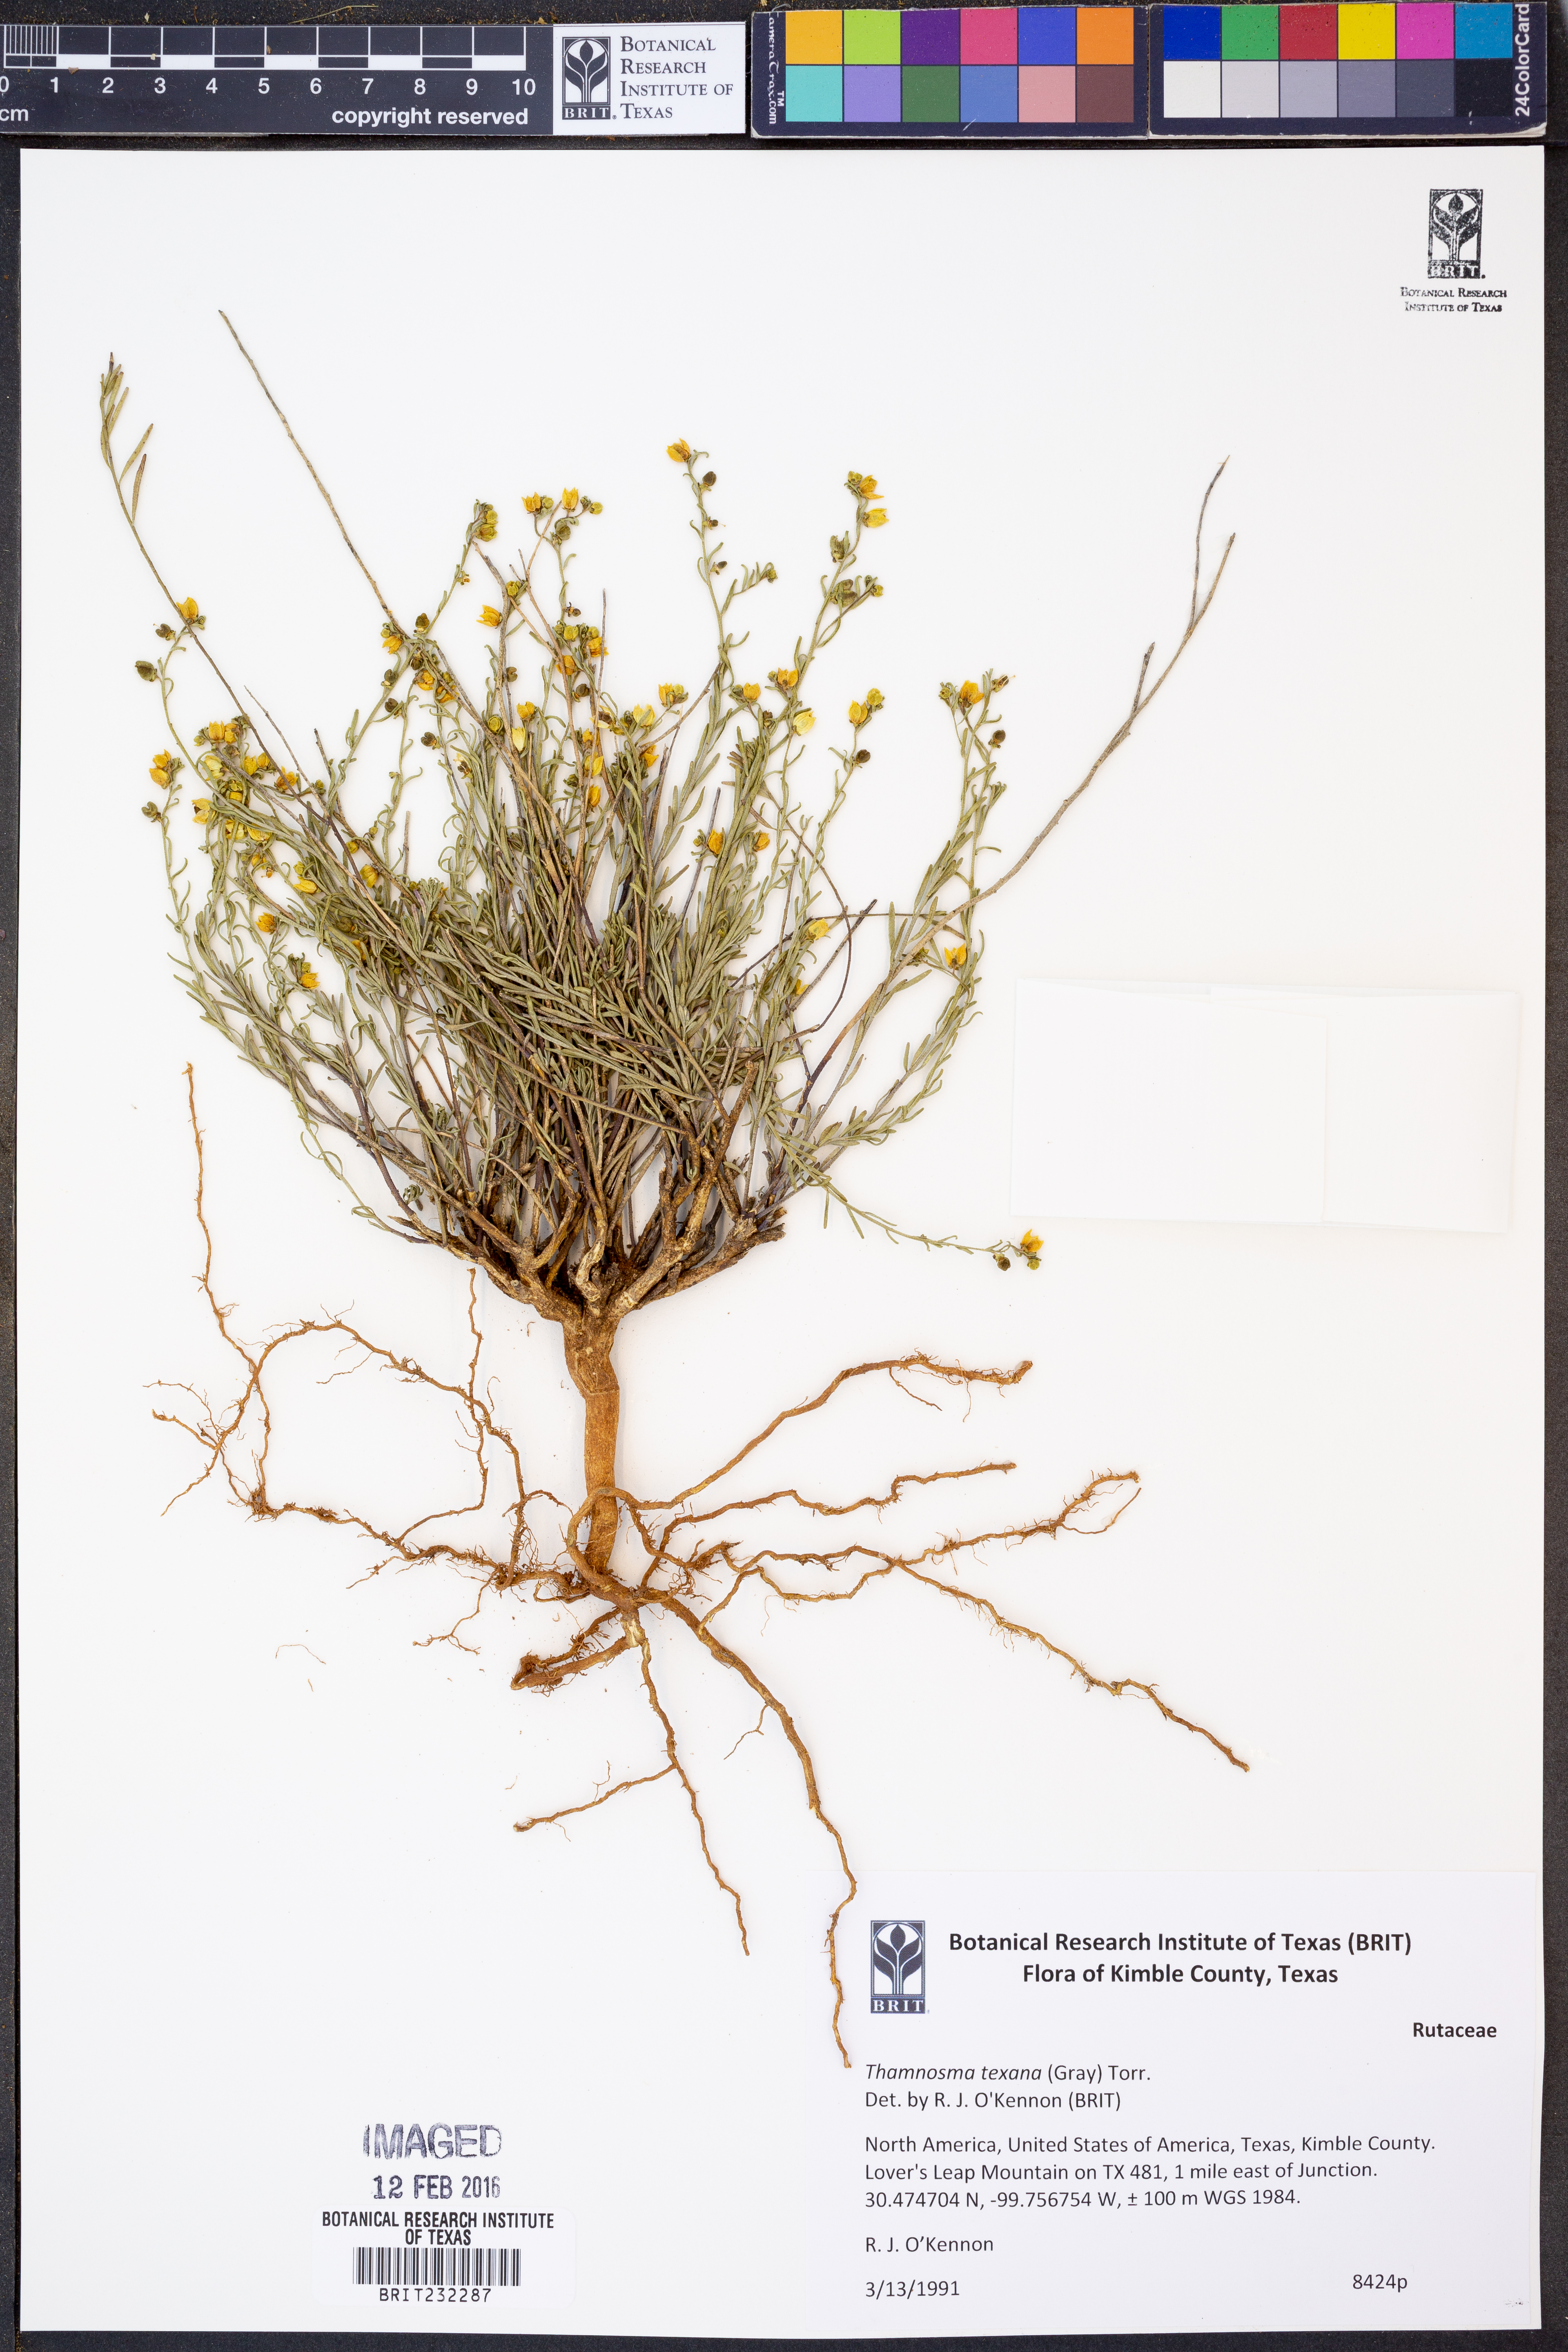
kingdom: Plantae
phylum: Tracheophyta
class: Magnoliopsida
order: Sapindales
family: Rutaceae
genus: Thamnosma
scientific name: Thamnosma texana
